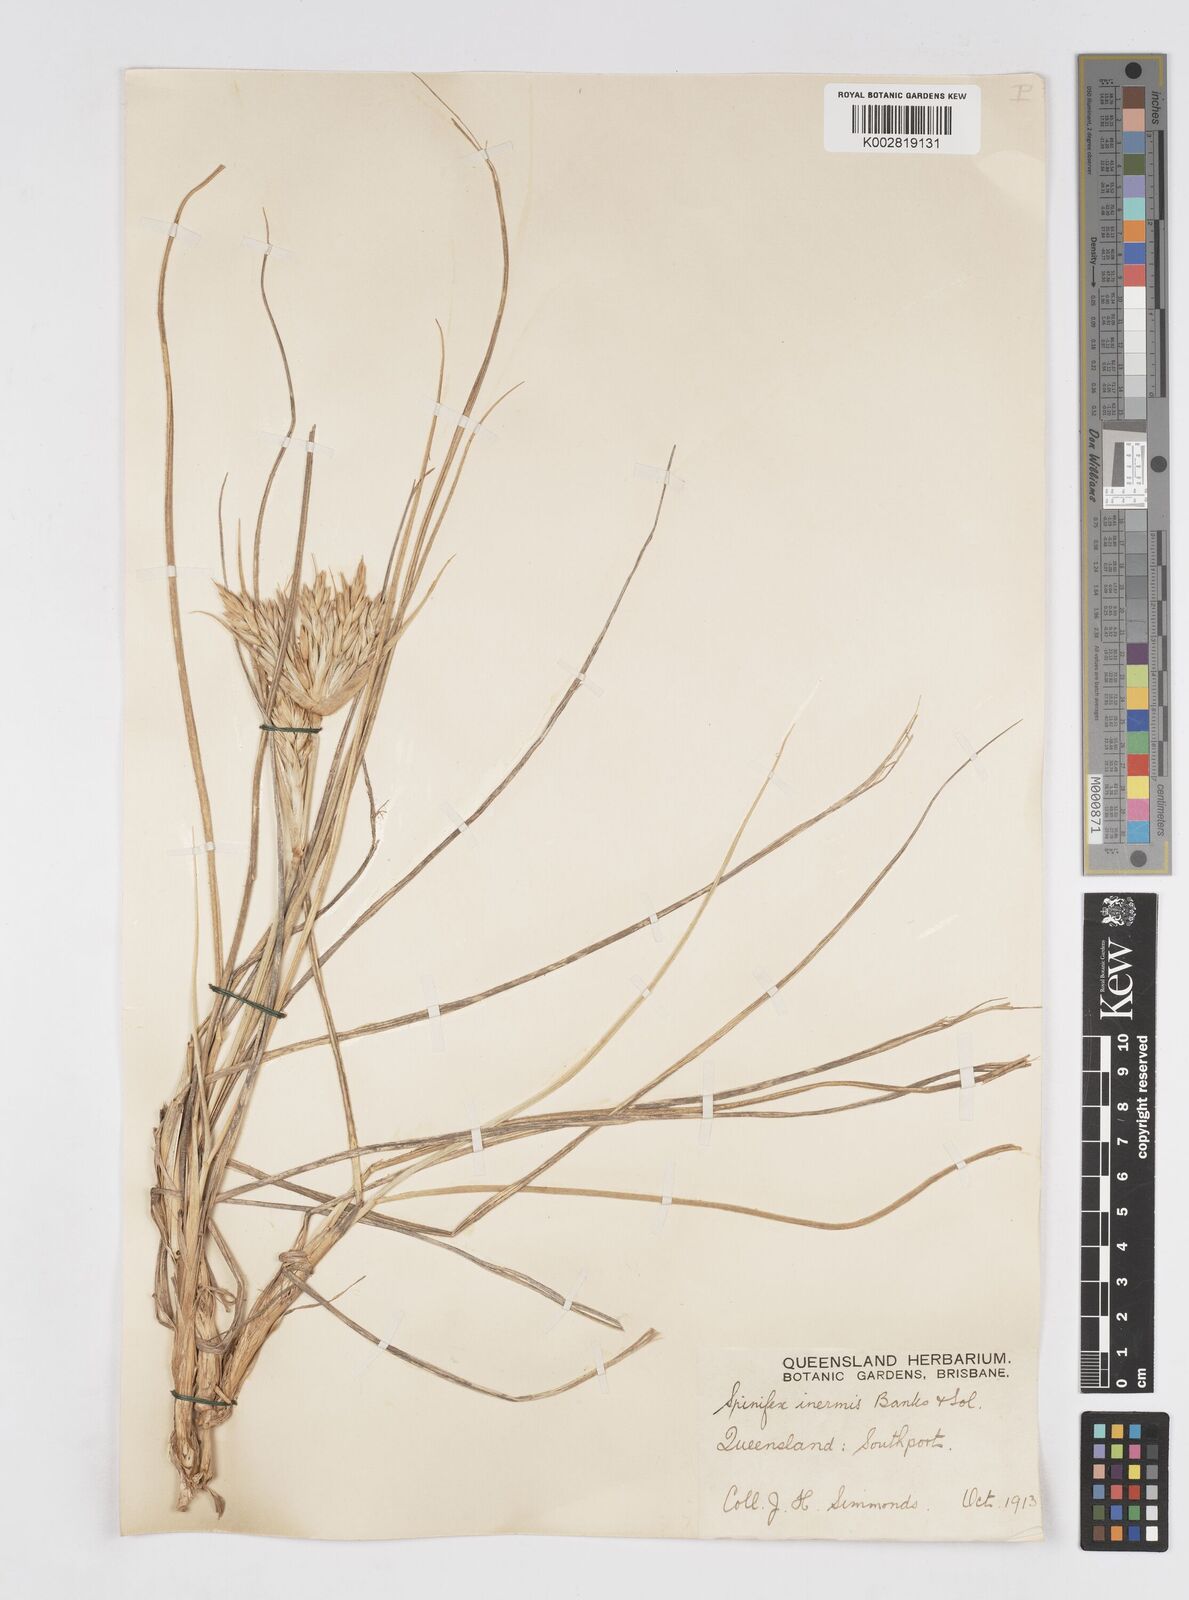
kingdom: Plantae
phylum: Tracheophyta
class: Liliopsida
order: Poales
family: Poaceae
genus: Spinifex
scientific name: Spinifex sericeus
